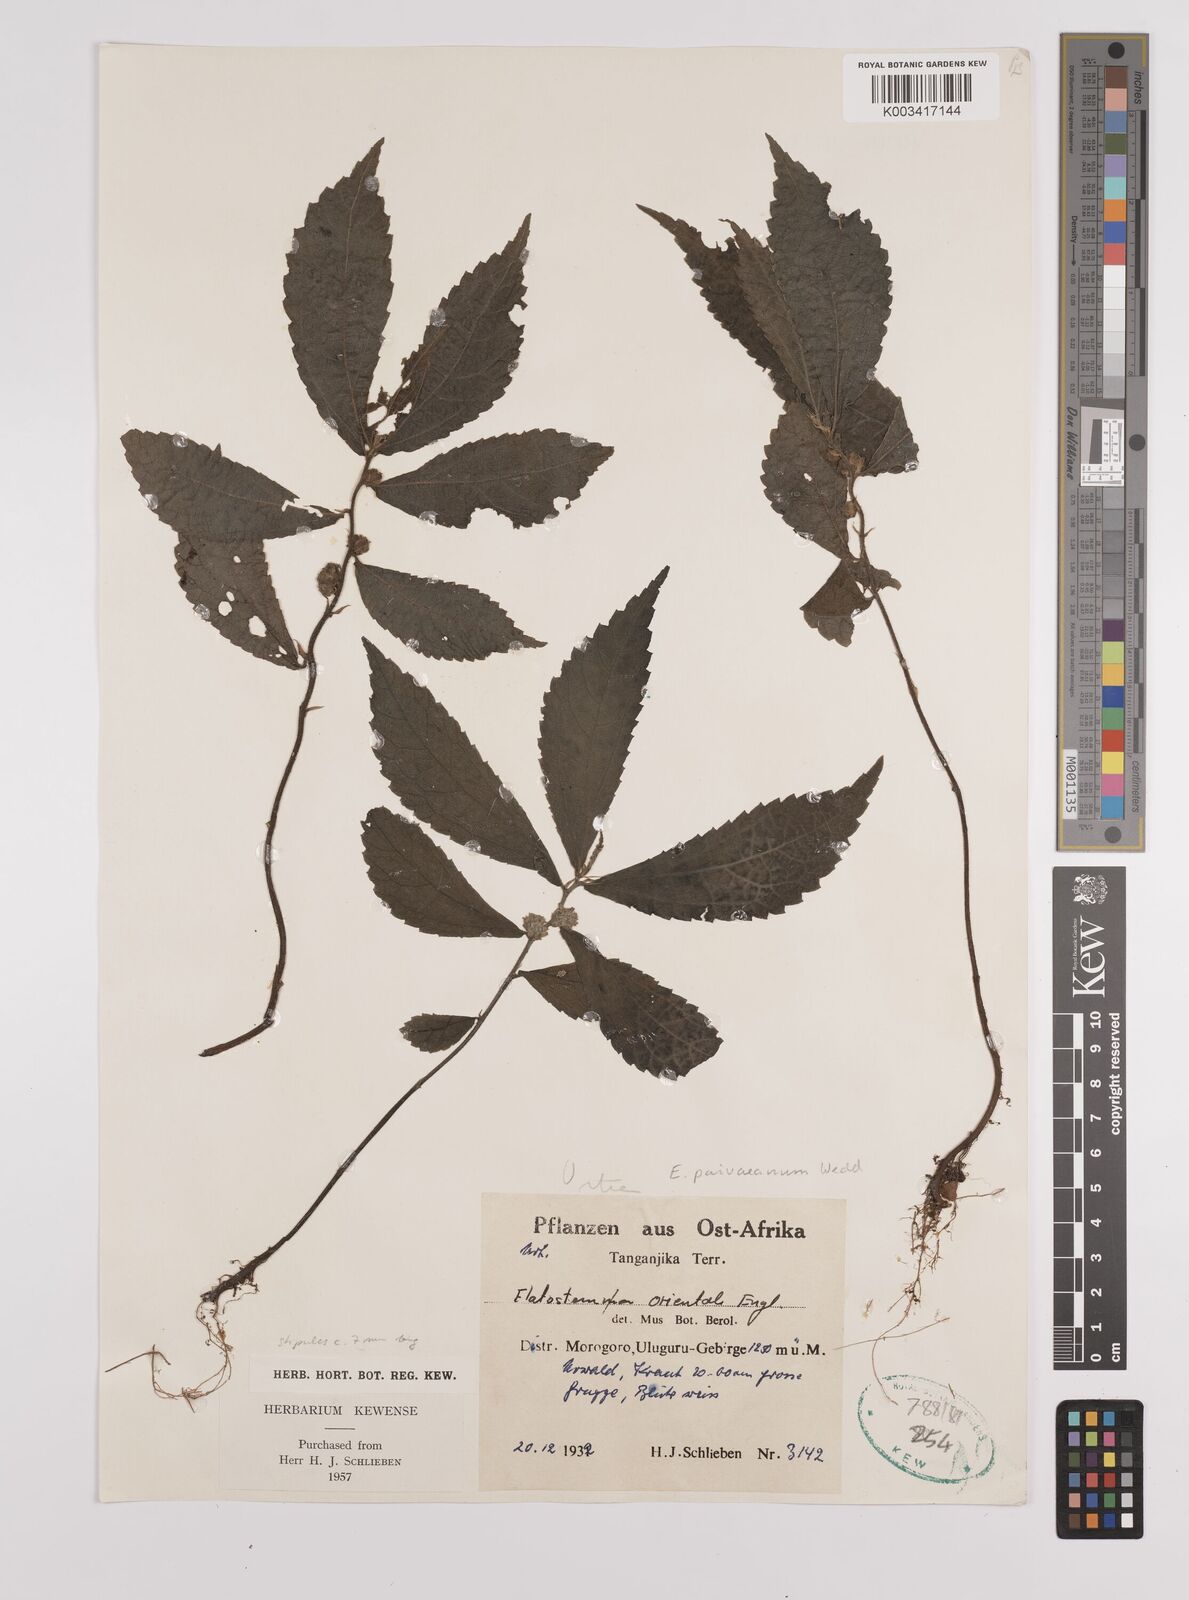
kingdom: Plantae
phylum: Tracheophyta
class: Magnoliopsida
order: Rosales
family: Urticaceae
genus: Elatostema
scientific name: Elatostema paivaeanum
